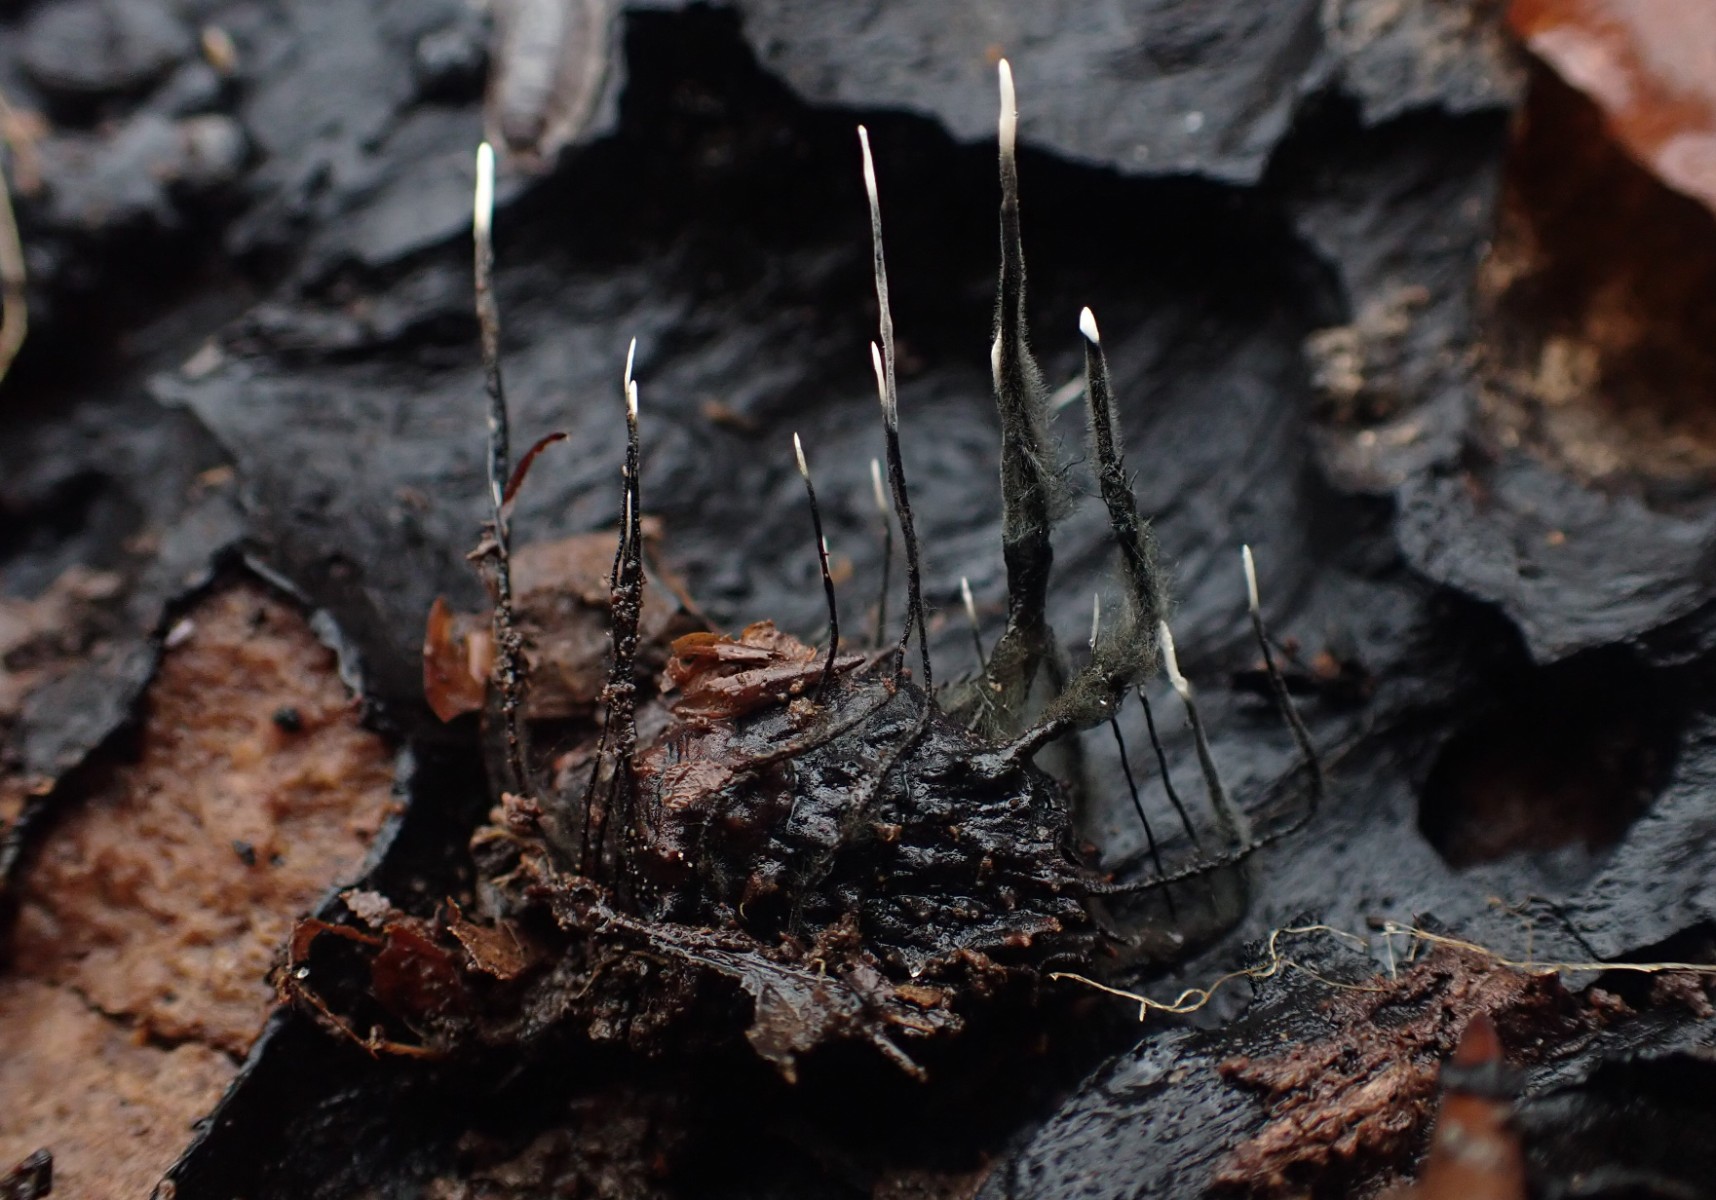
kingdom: Fungi
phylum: Ascomycota
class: Sordariomycetes
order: Xylariales
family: Xylariaceae
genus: Xylaria
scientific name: Xylaria carpophila
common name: bogskål-stødsvamp
